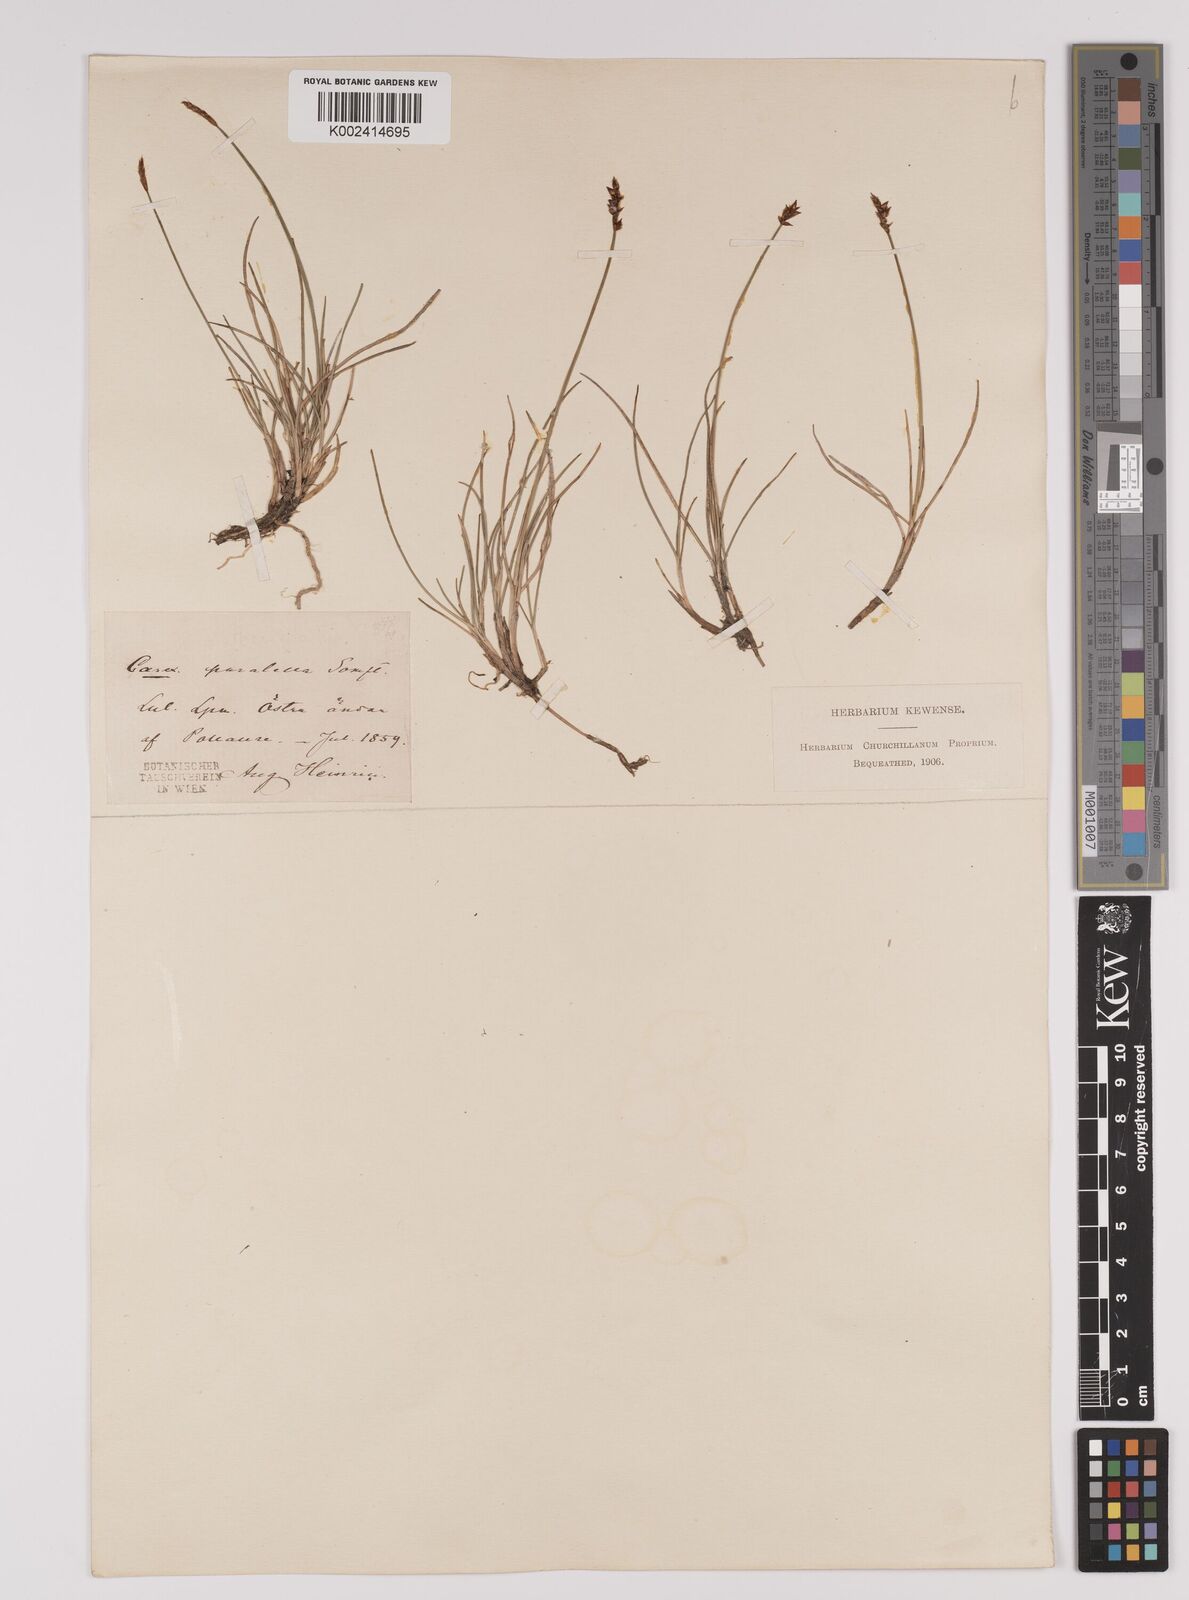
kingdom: Plantae
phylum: Tracheophyta
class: Liliopsida
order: Poales
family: Cyperaceae
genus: Carex
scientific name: Carex parallela
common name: Parallel sedge
